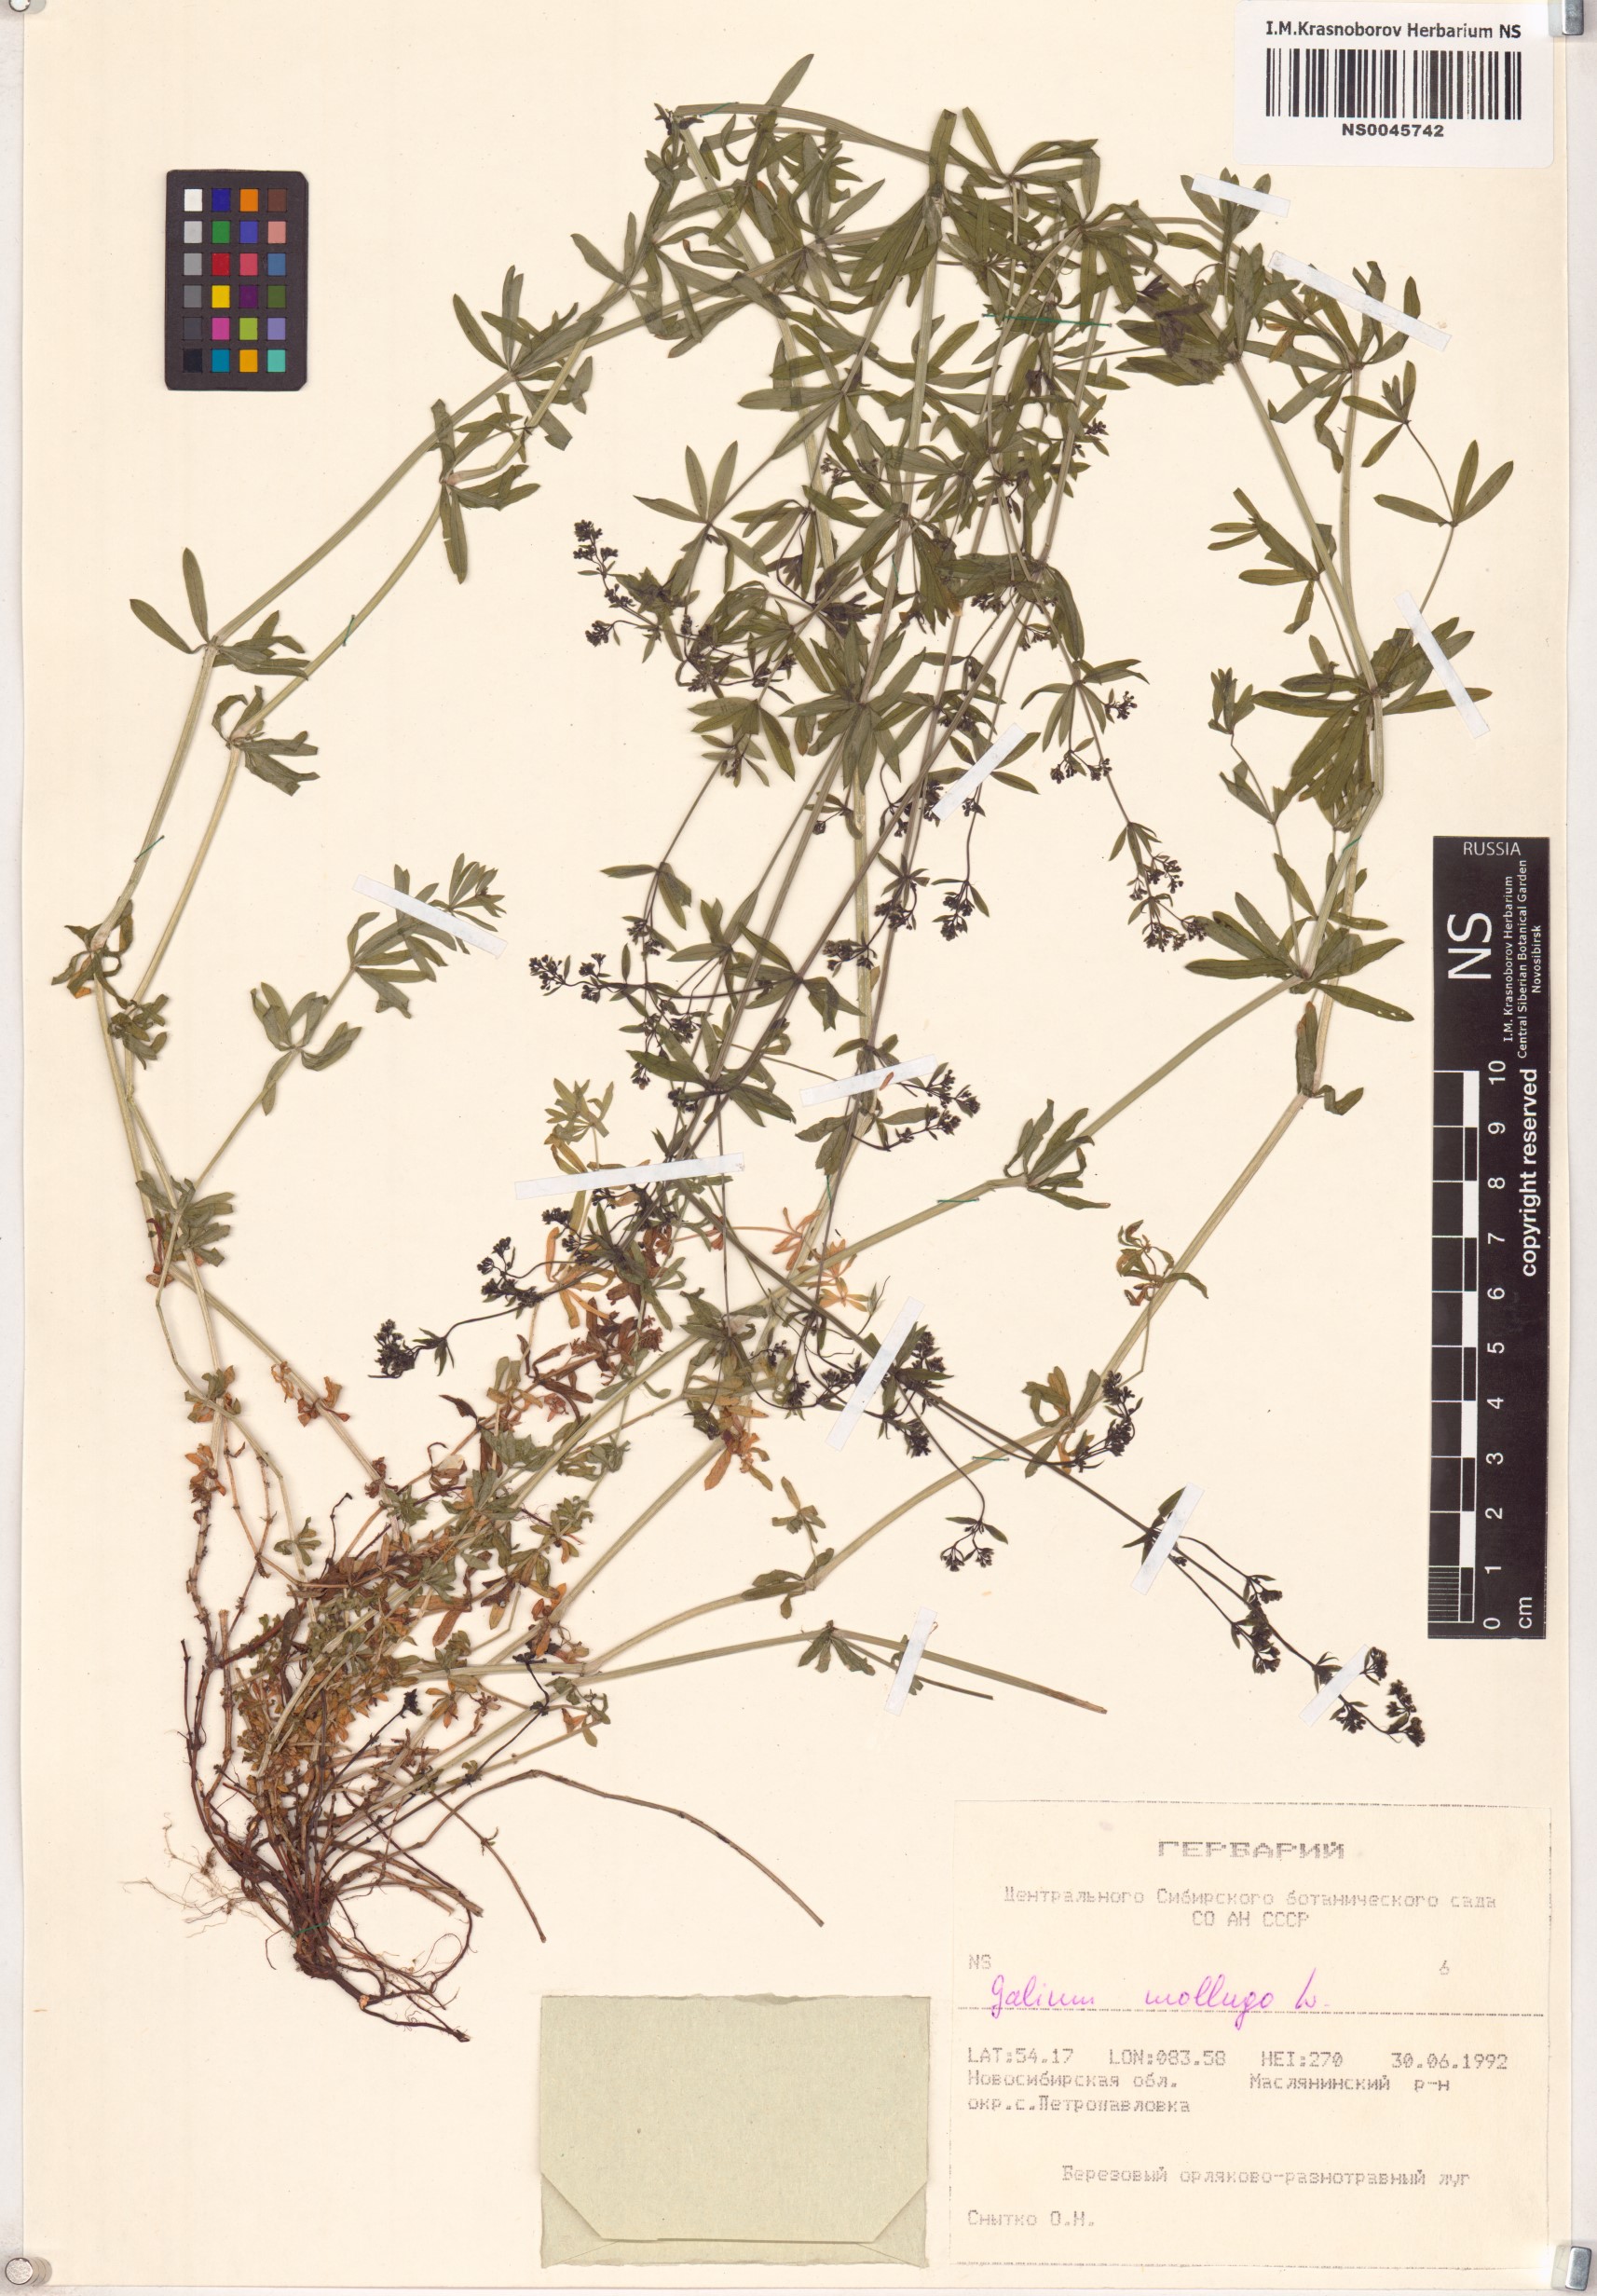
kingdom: Plantae
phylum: Tracheophyta
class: Magnoliopsida
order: Gentianales
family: Rubiaceae
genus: Galium
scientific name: Galium mollugo
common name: Hedge bedstraw
